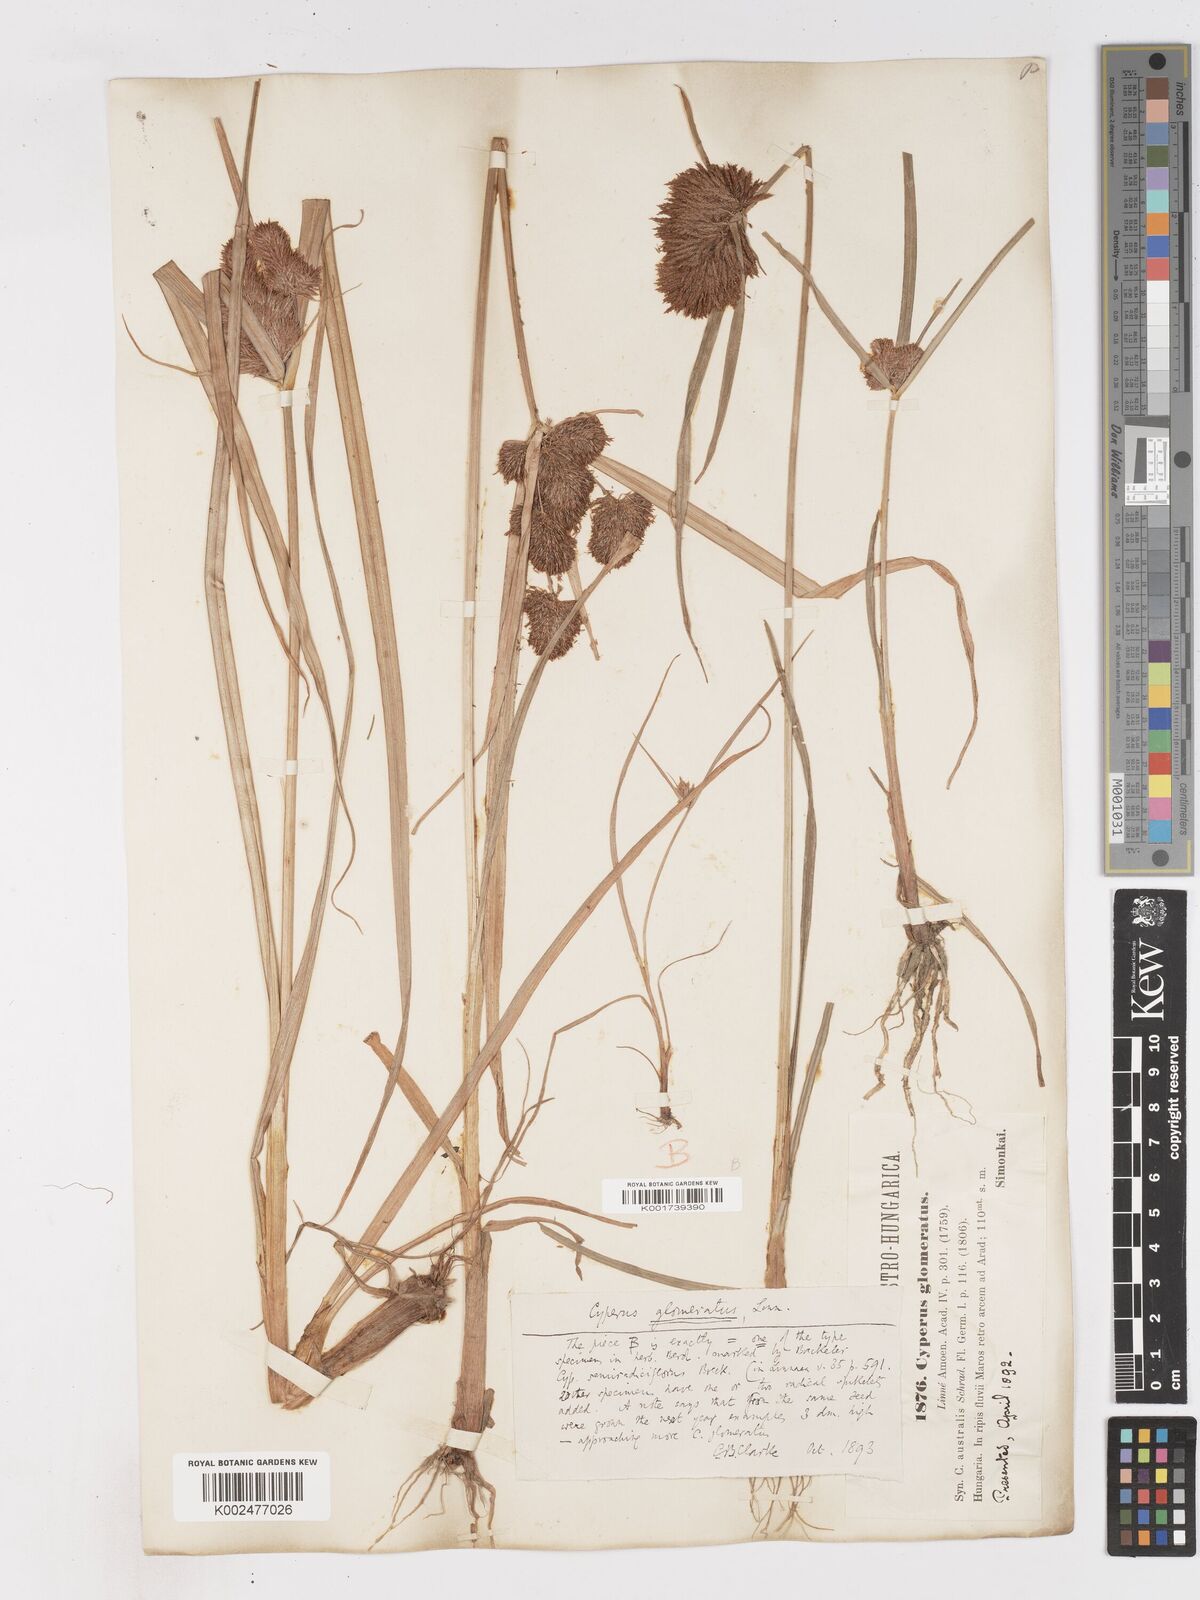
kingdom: Plantae
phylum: Tracheophyta
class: Liliopsida
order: Poales
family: Cyperaceae
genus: Cyperus
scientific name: Cyperus glomeratus
